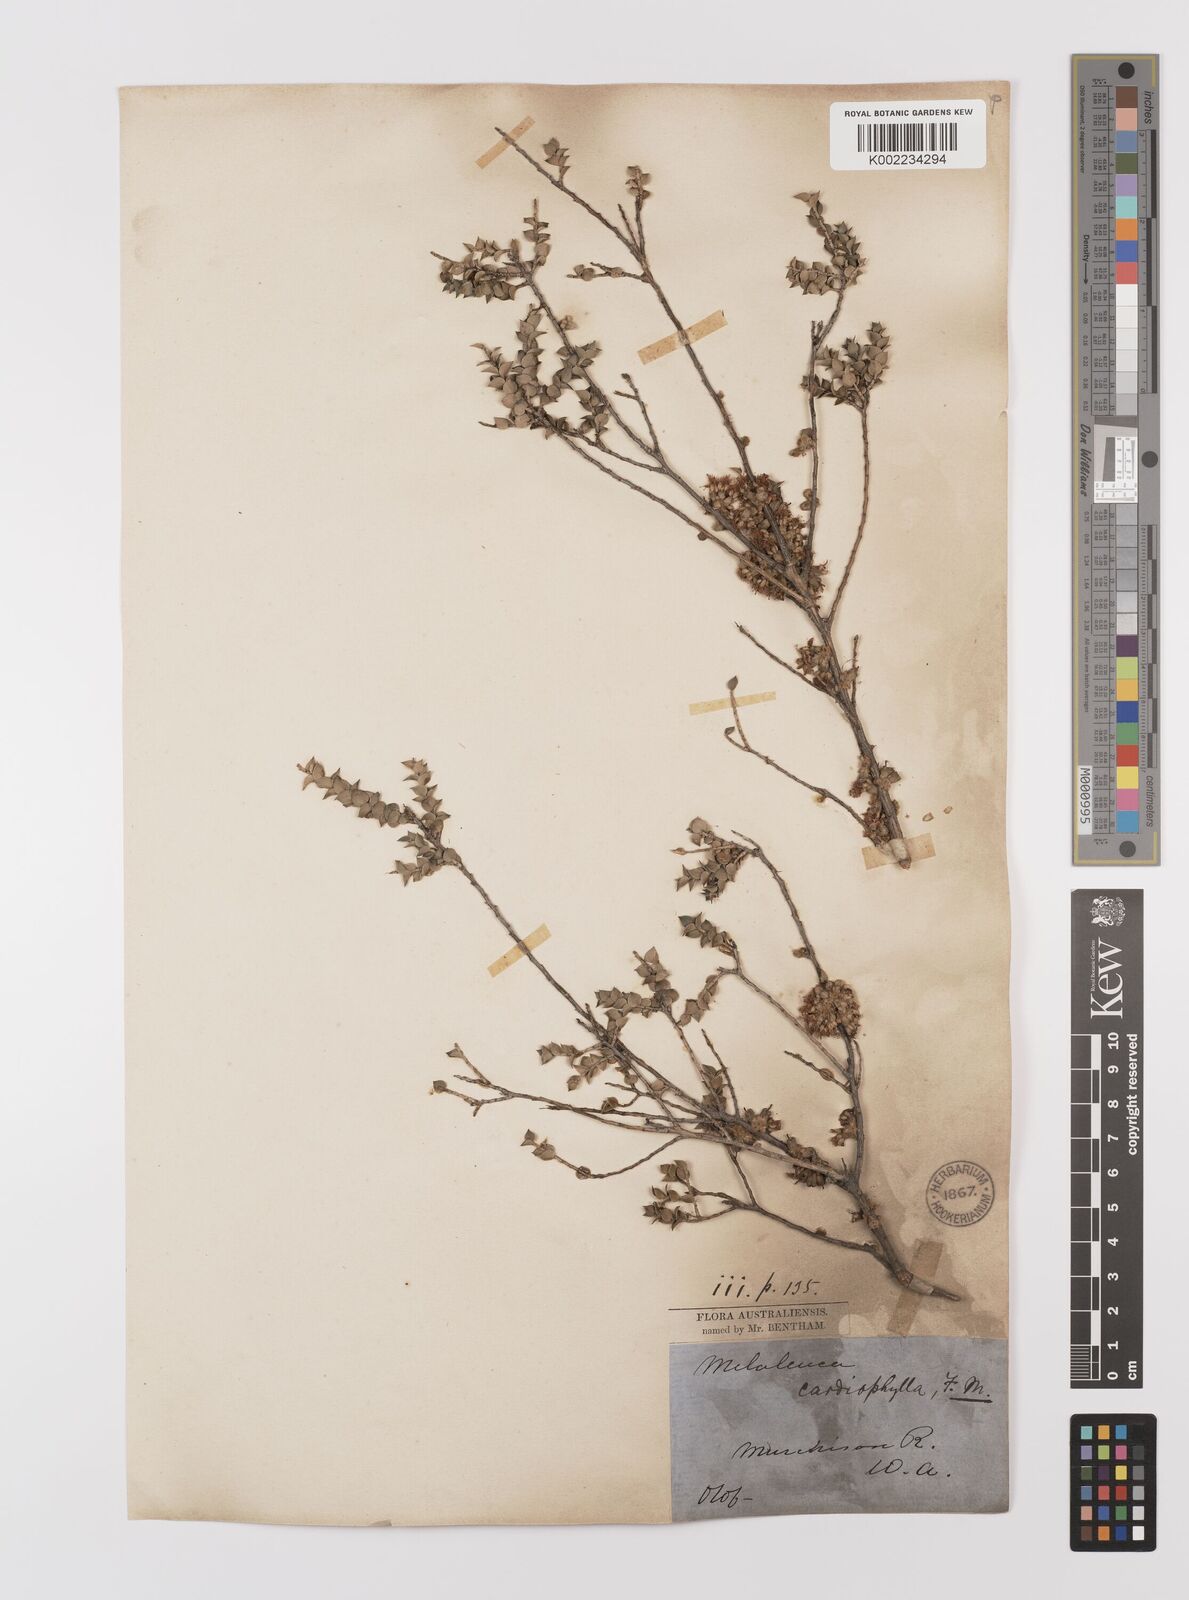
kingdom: Plantae
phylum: Tracheophyta
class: Magnoliopsida
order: Myrtales
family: Myrtaceae
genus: Melaleuca
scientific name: Melaleuca cardiophylla
